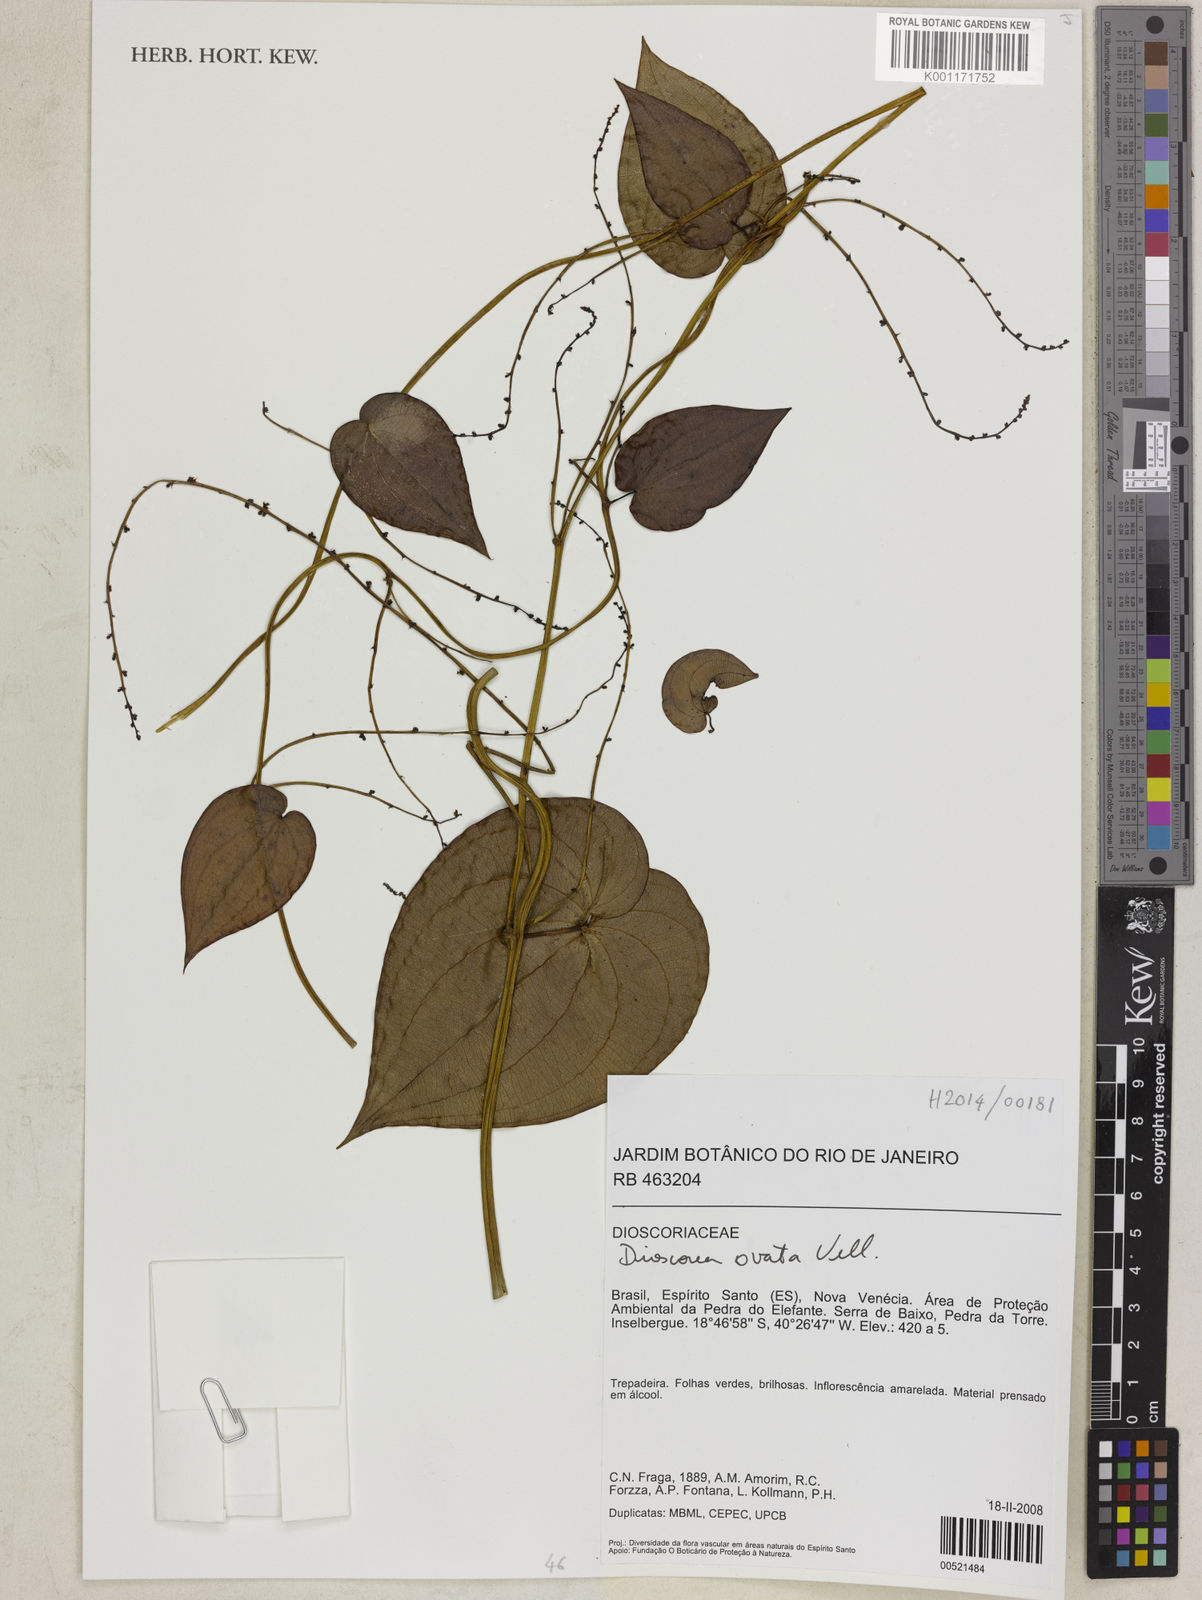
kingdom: Plantae
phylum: Tracheophyta
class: Liliopsida
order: Dioscoreales
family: Dioscoreaceae
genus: Dioscorea
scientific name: Dioscorea ovata
